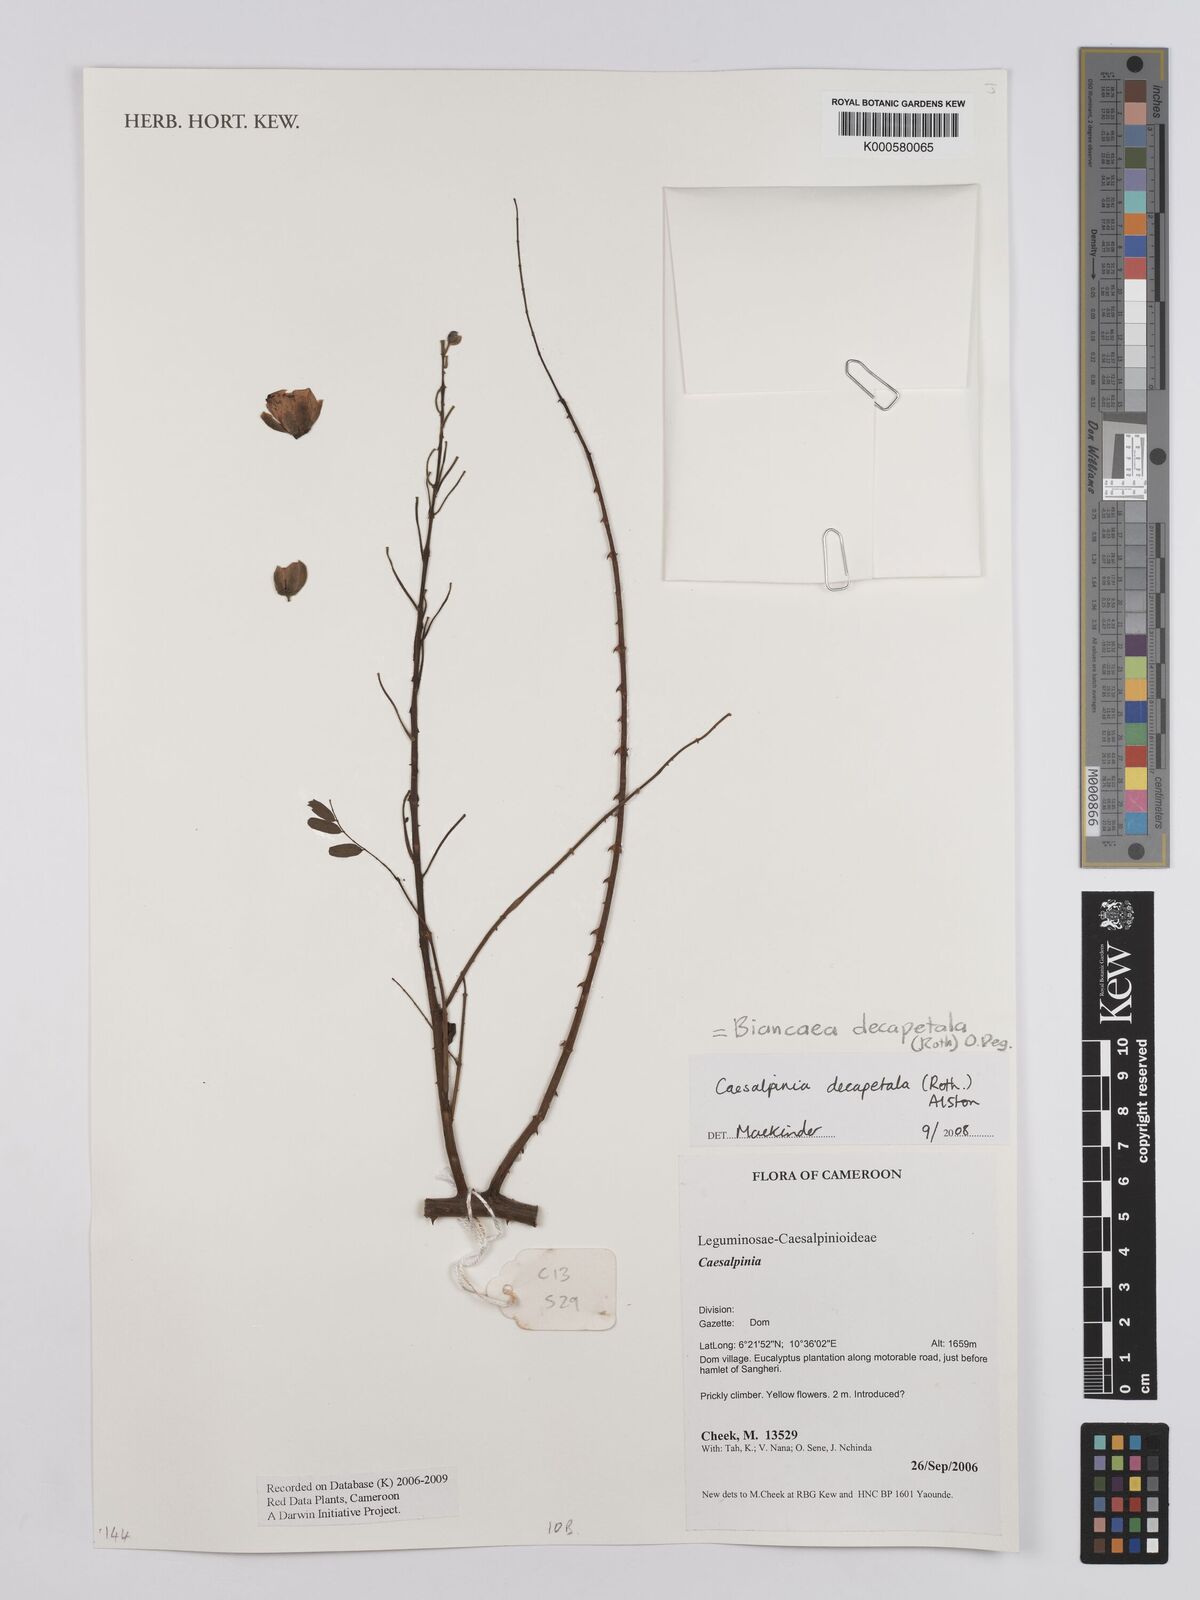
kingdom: Plantae
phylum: Tracheophyta
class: Magnoliopsida
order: Fabales
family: Fabaceae
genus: Biancaea
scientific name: Biancaea decapetala
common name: Cat's claw
